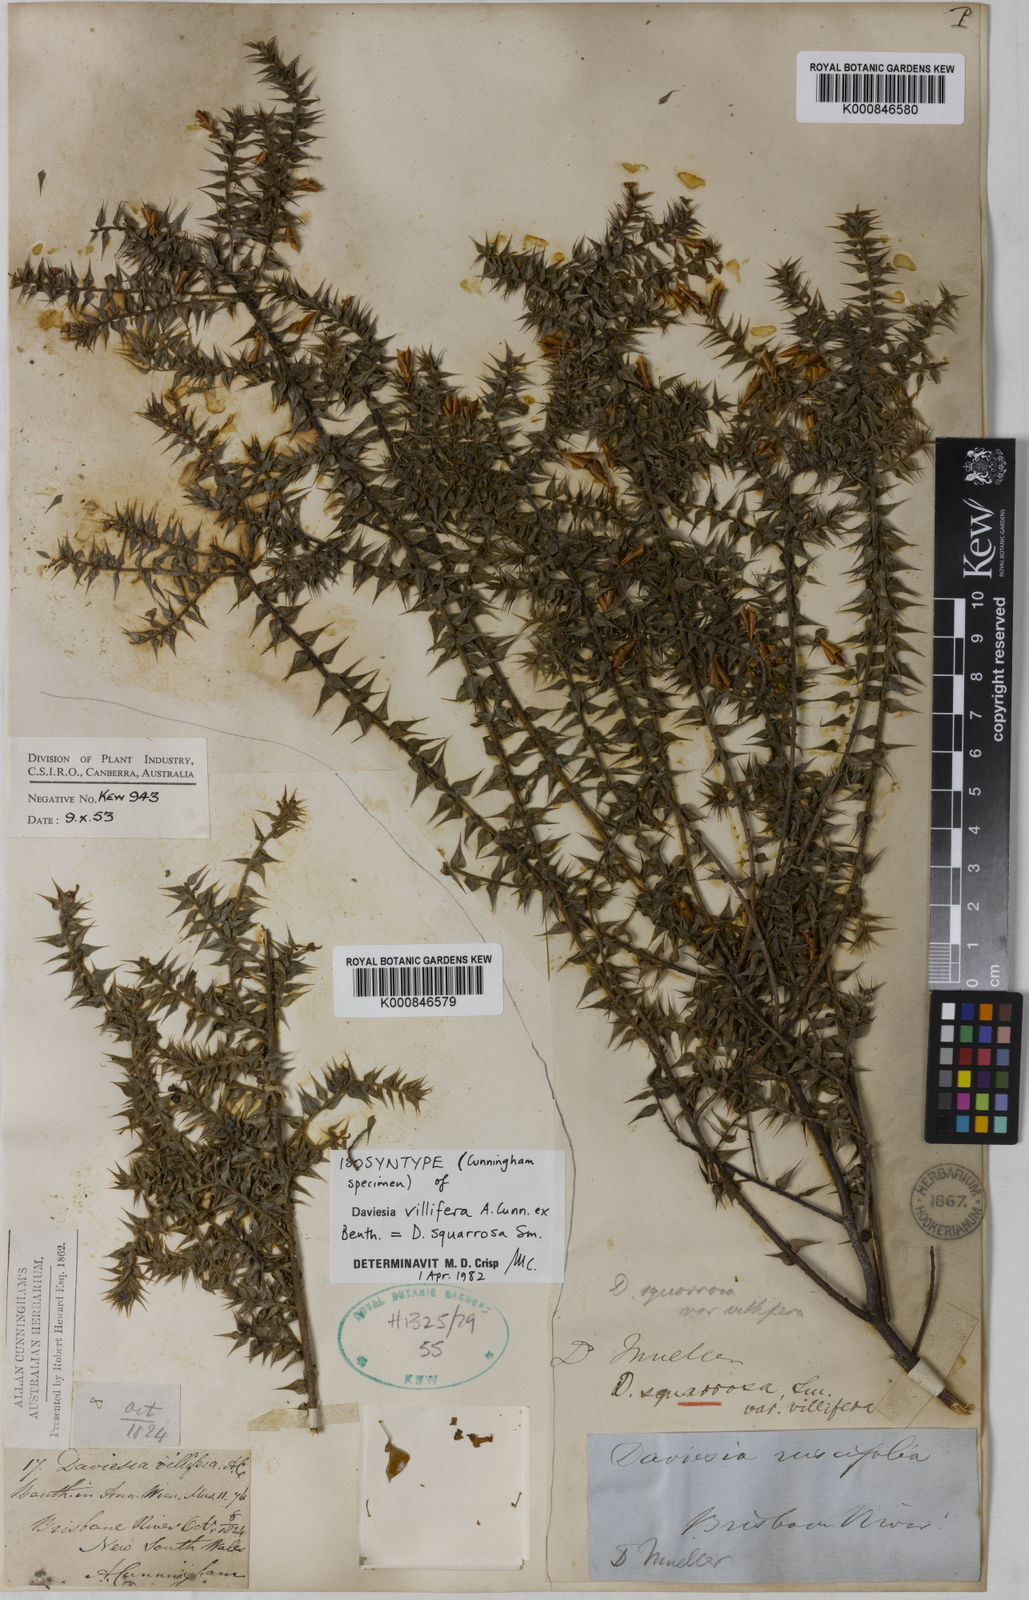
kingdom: Plantae
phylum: Tracheophyta
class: Magnoliopsida
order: Fabales
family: Fabaceae
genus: Daviesia
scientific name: Daviesia squarrosa
